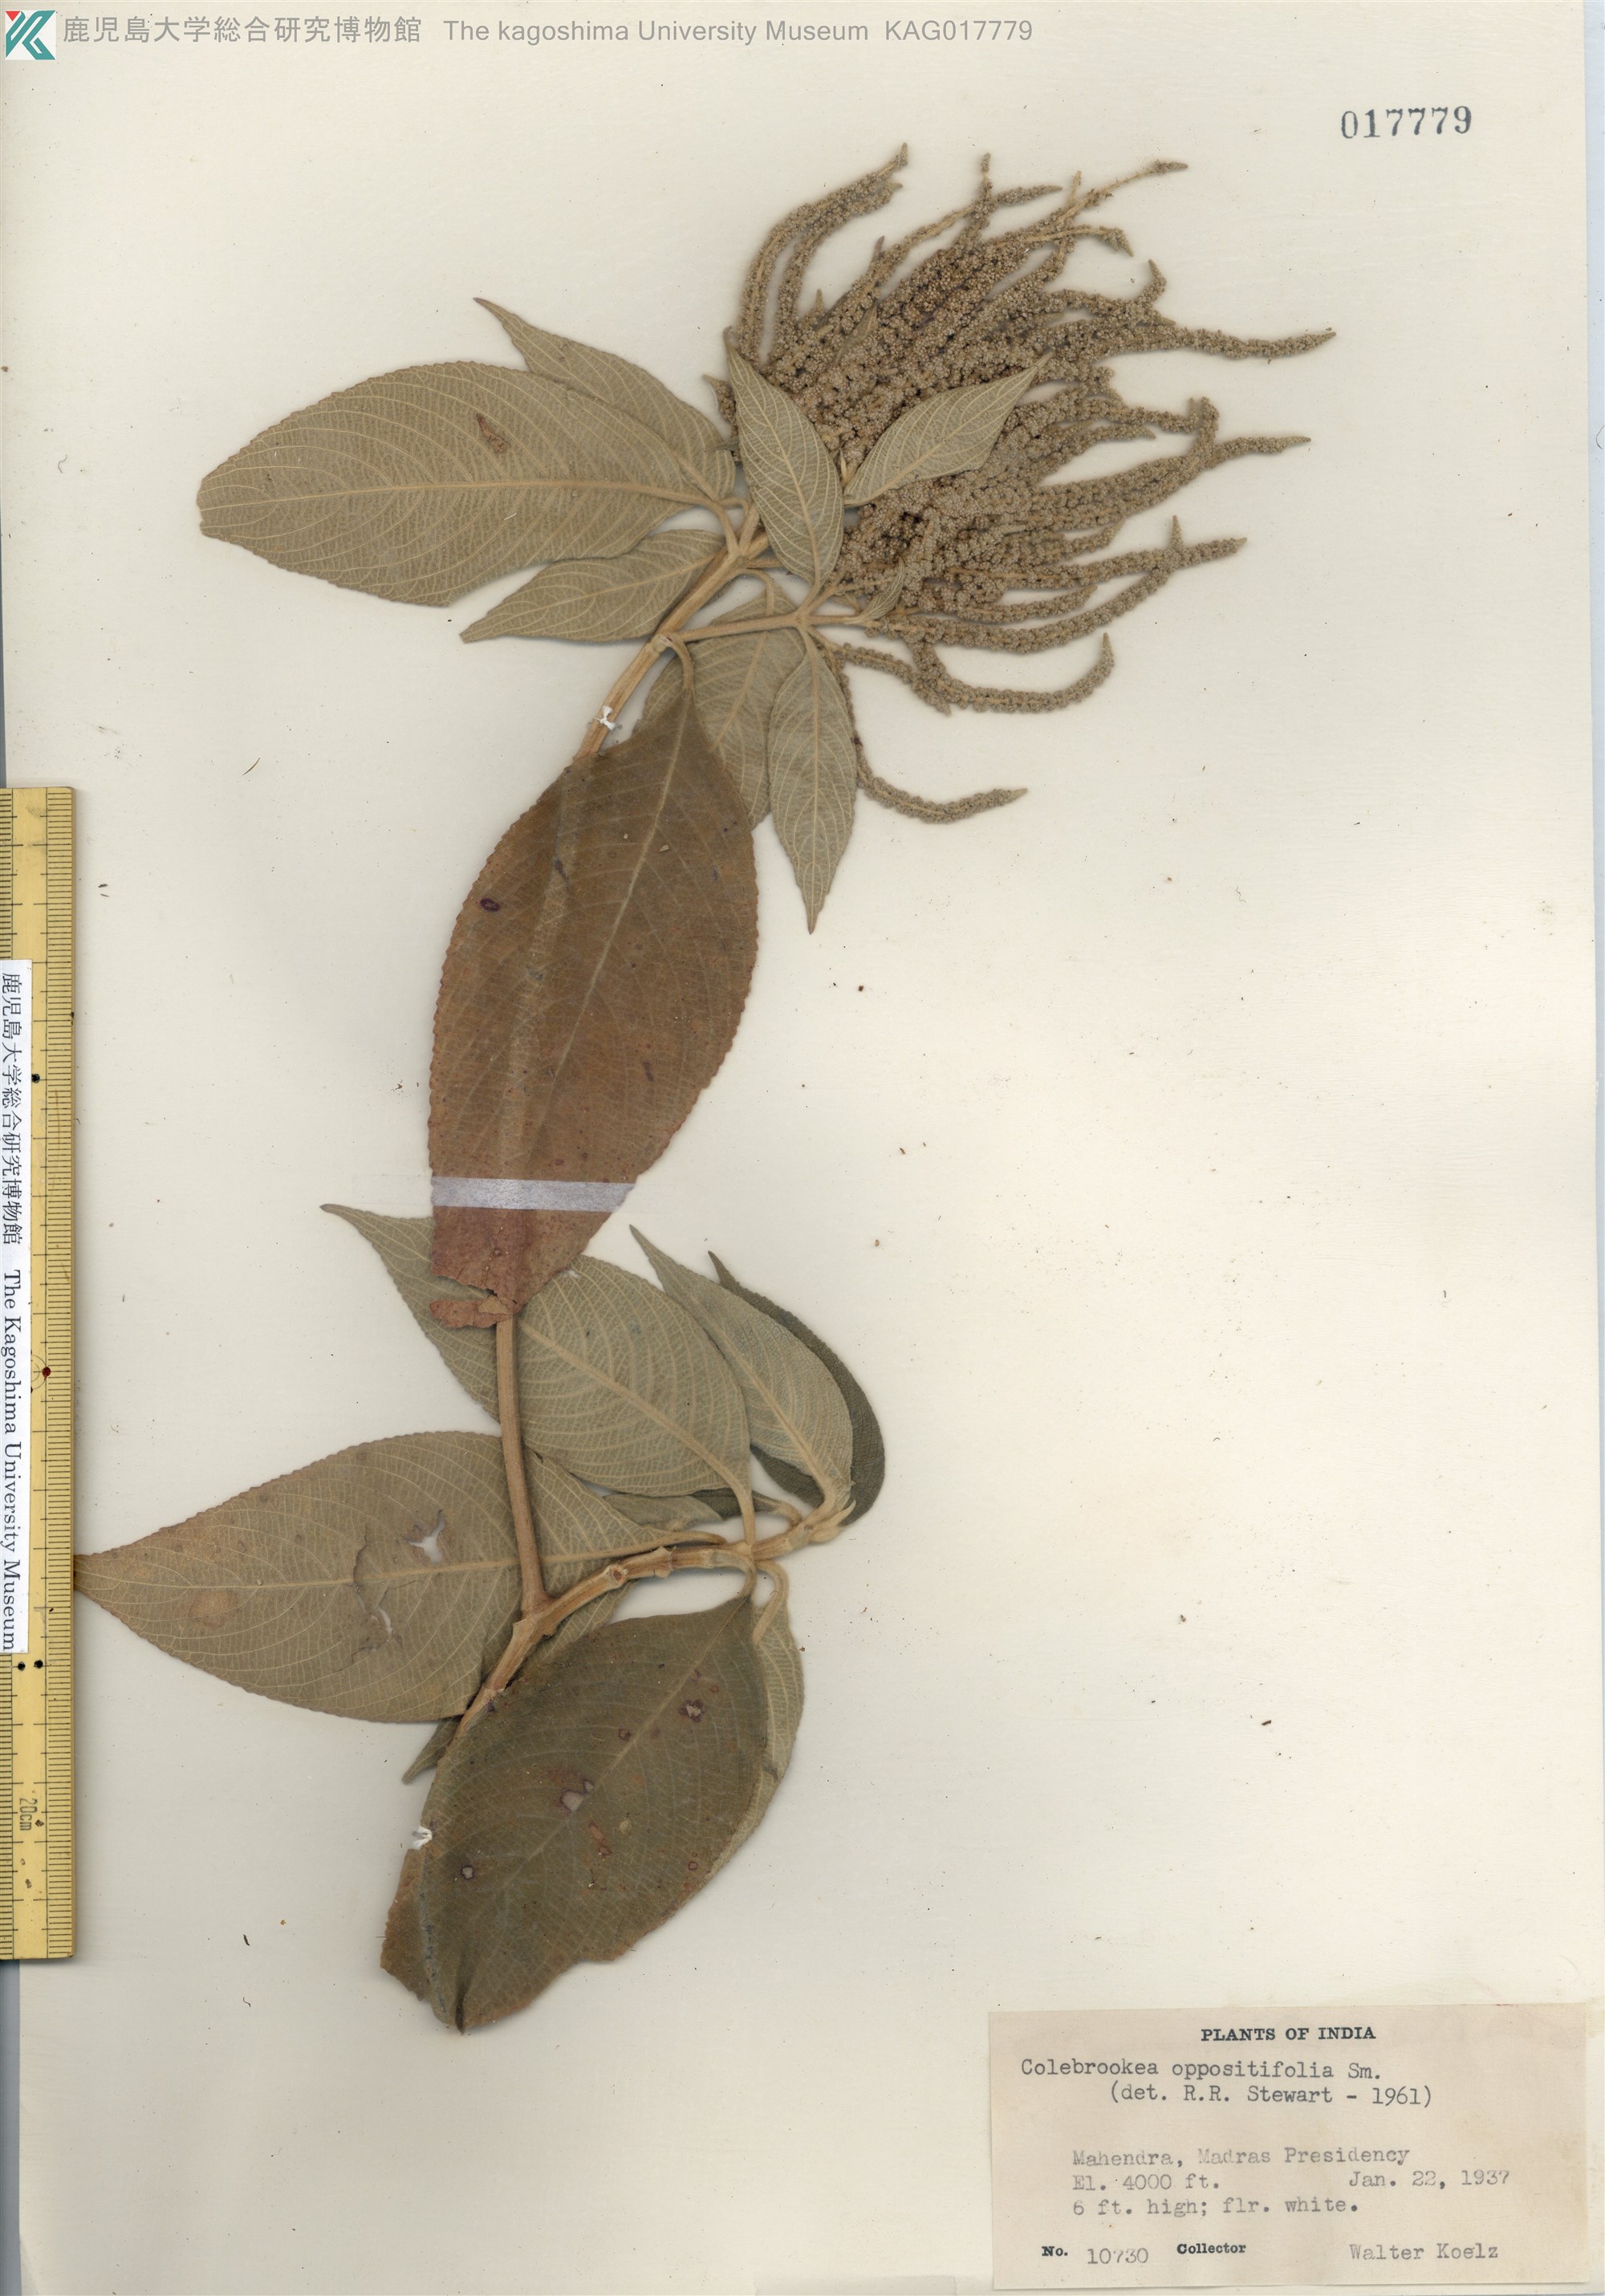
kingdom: Plantae
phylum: Tracheophyta
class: Magnoliopsida
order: Lamiales
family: Lamiaceae
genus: Colebrookea
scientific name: Colebrookea oppositifolia
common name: Indian squirrel tail
